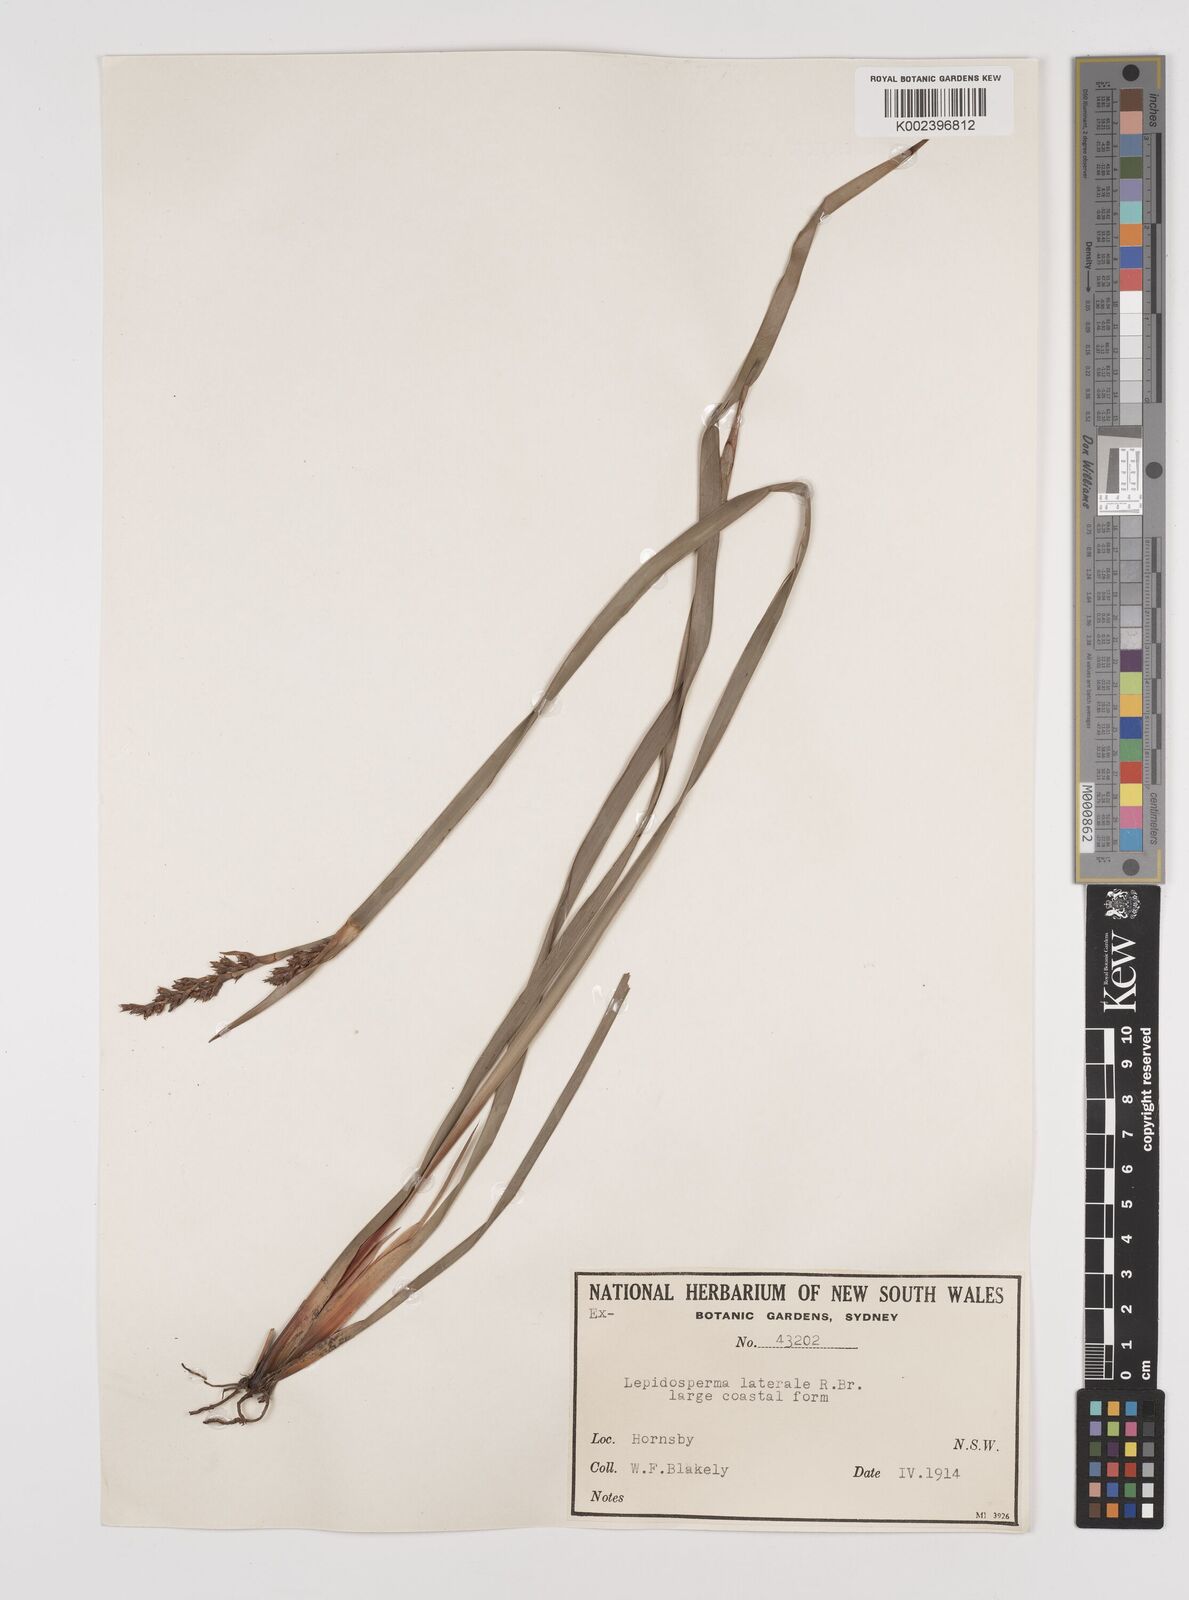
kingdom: Plantae
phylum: Tracheophyta
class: Liliopsida
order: Poales
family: Cyperaceae
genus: Lepidosperma
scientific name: Lepidosperma laterale
